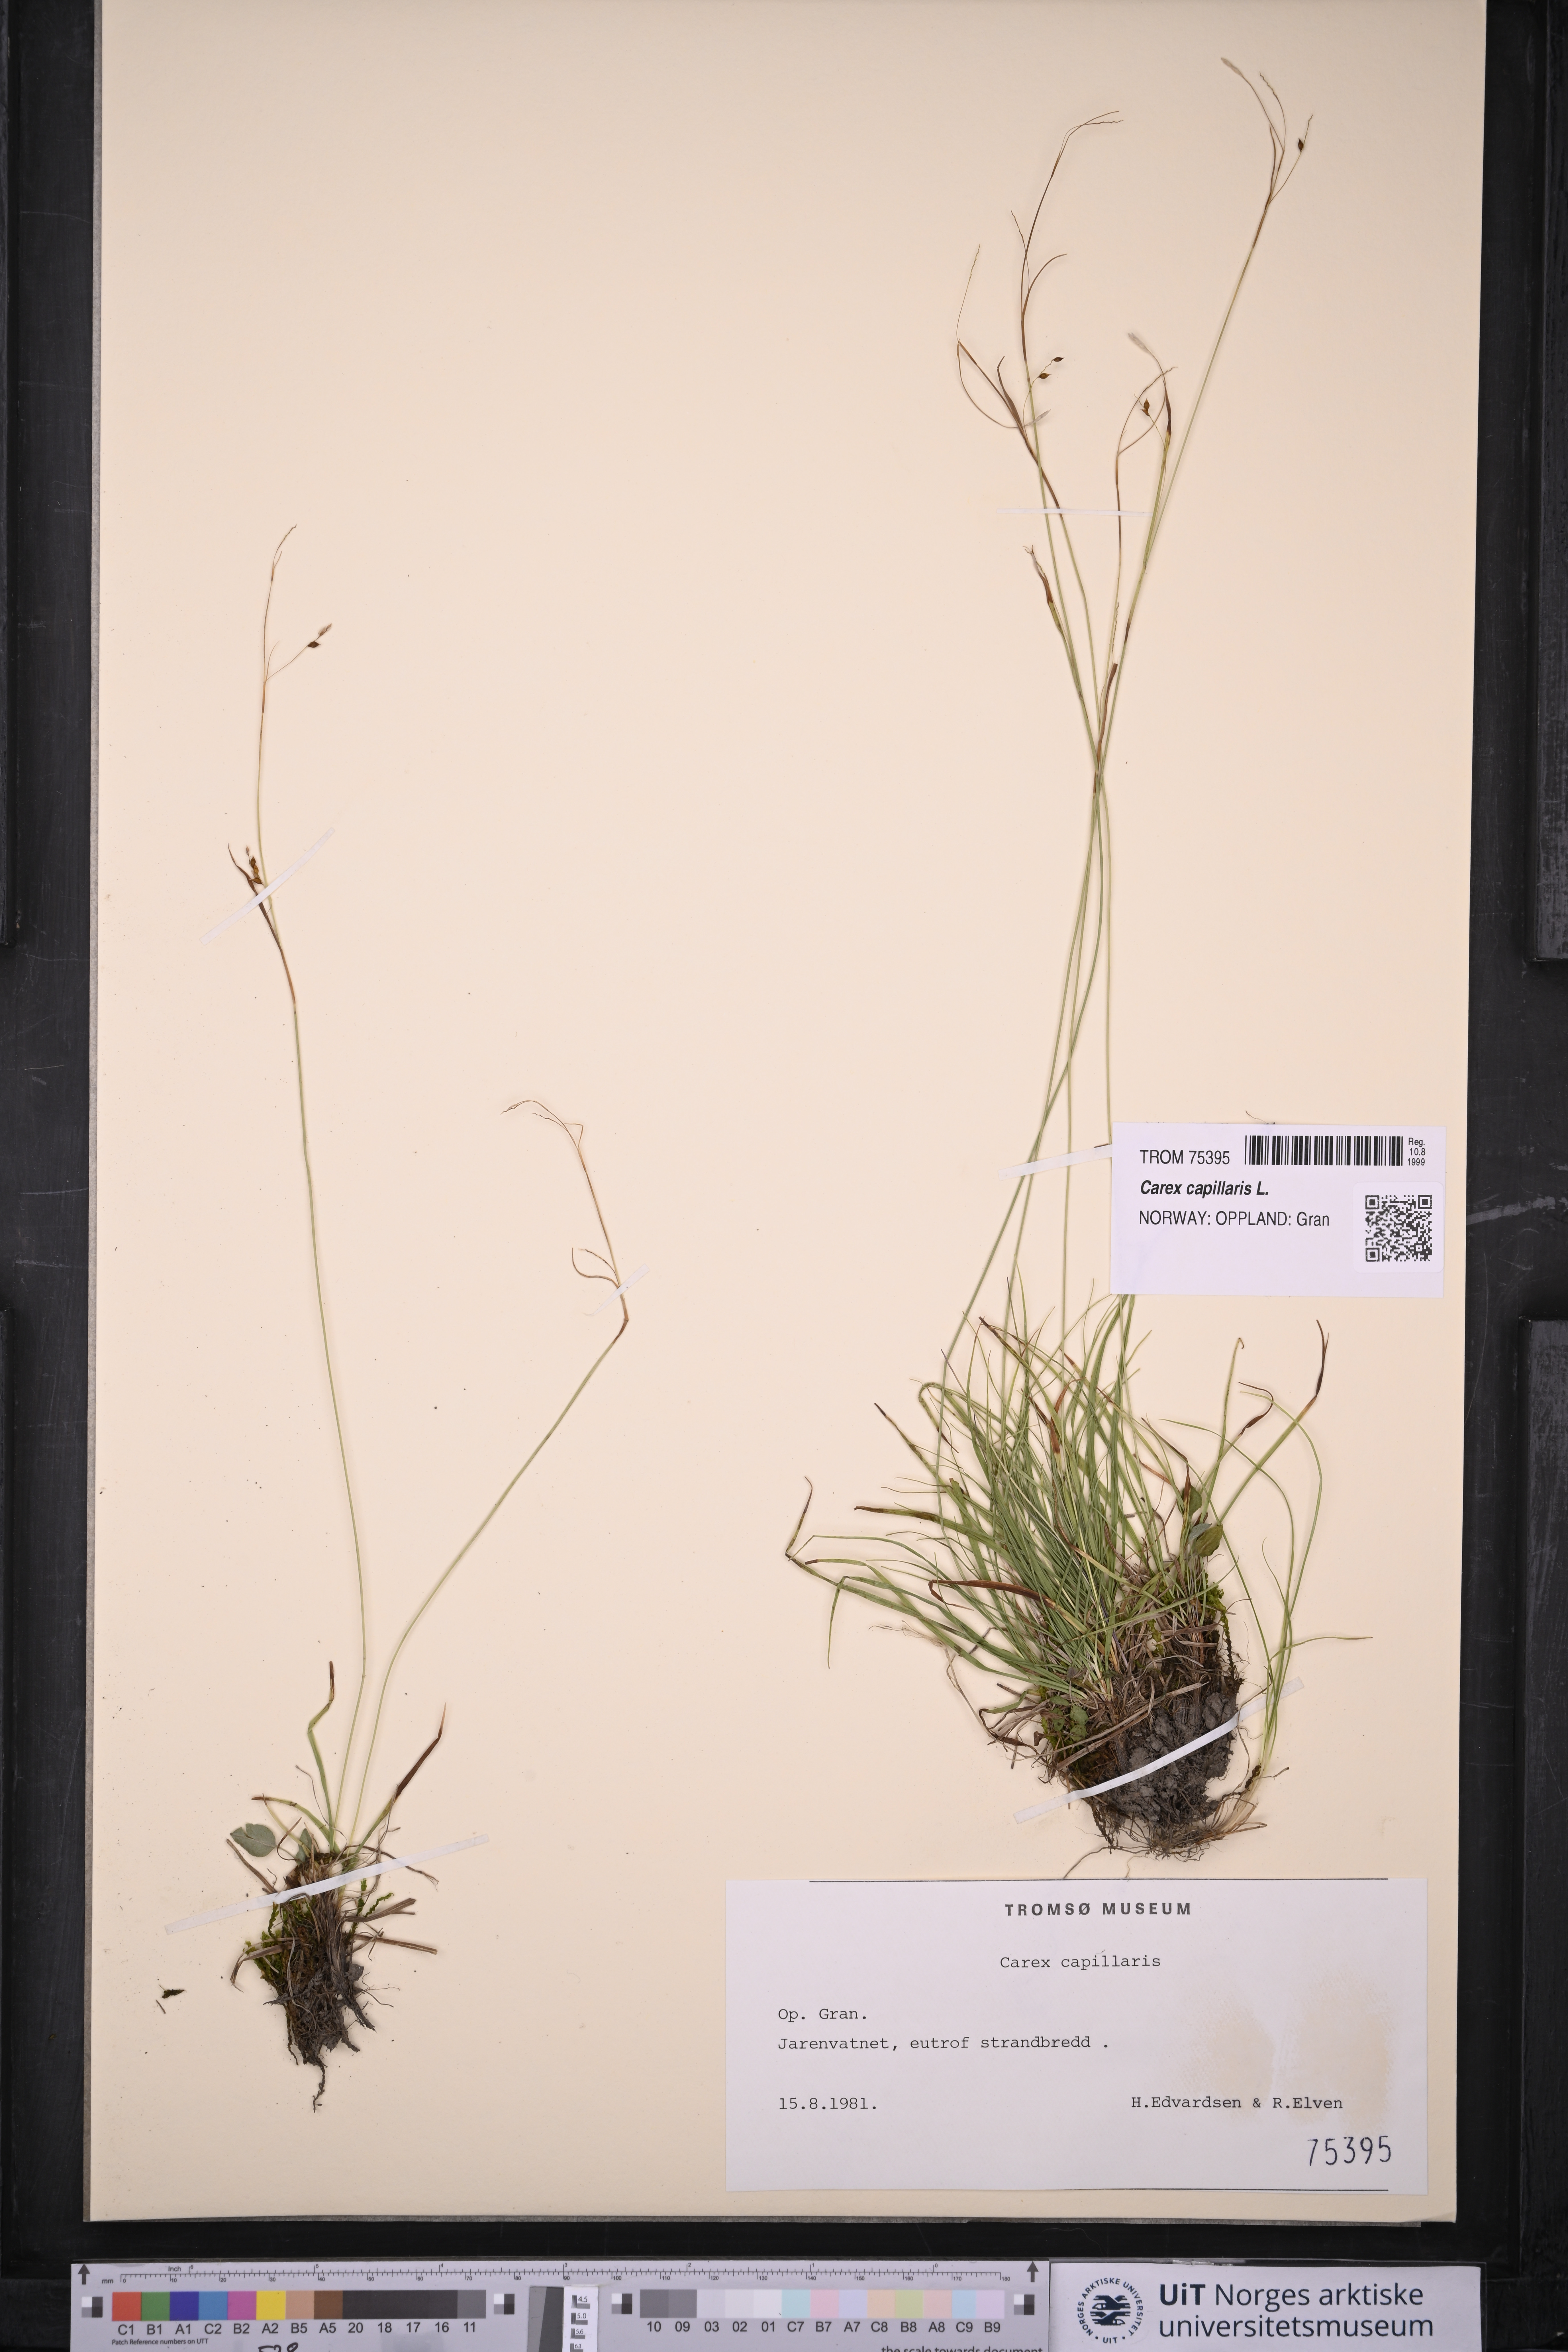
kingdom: Plantae
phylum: Tracheophyta
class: Liliopsida
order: Poales
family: Cyperaceae
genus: Carex
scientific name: Carex capillaris
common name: Hair sedge
